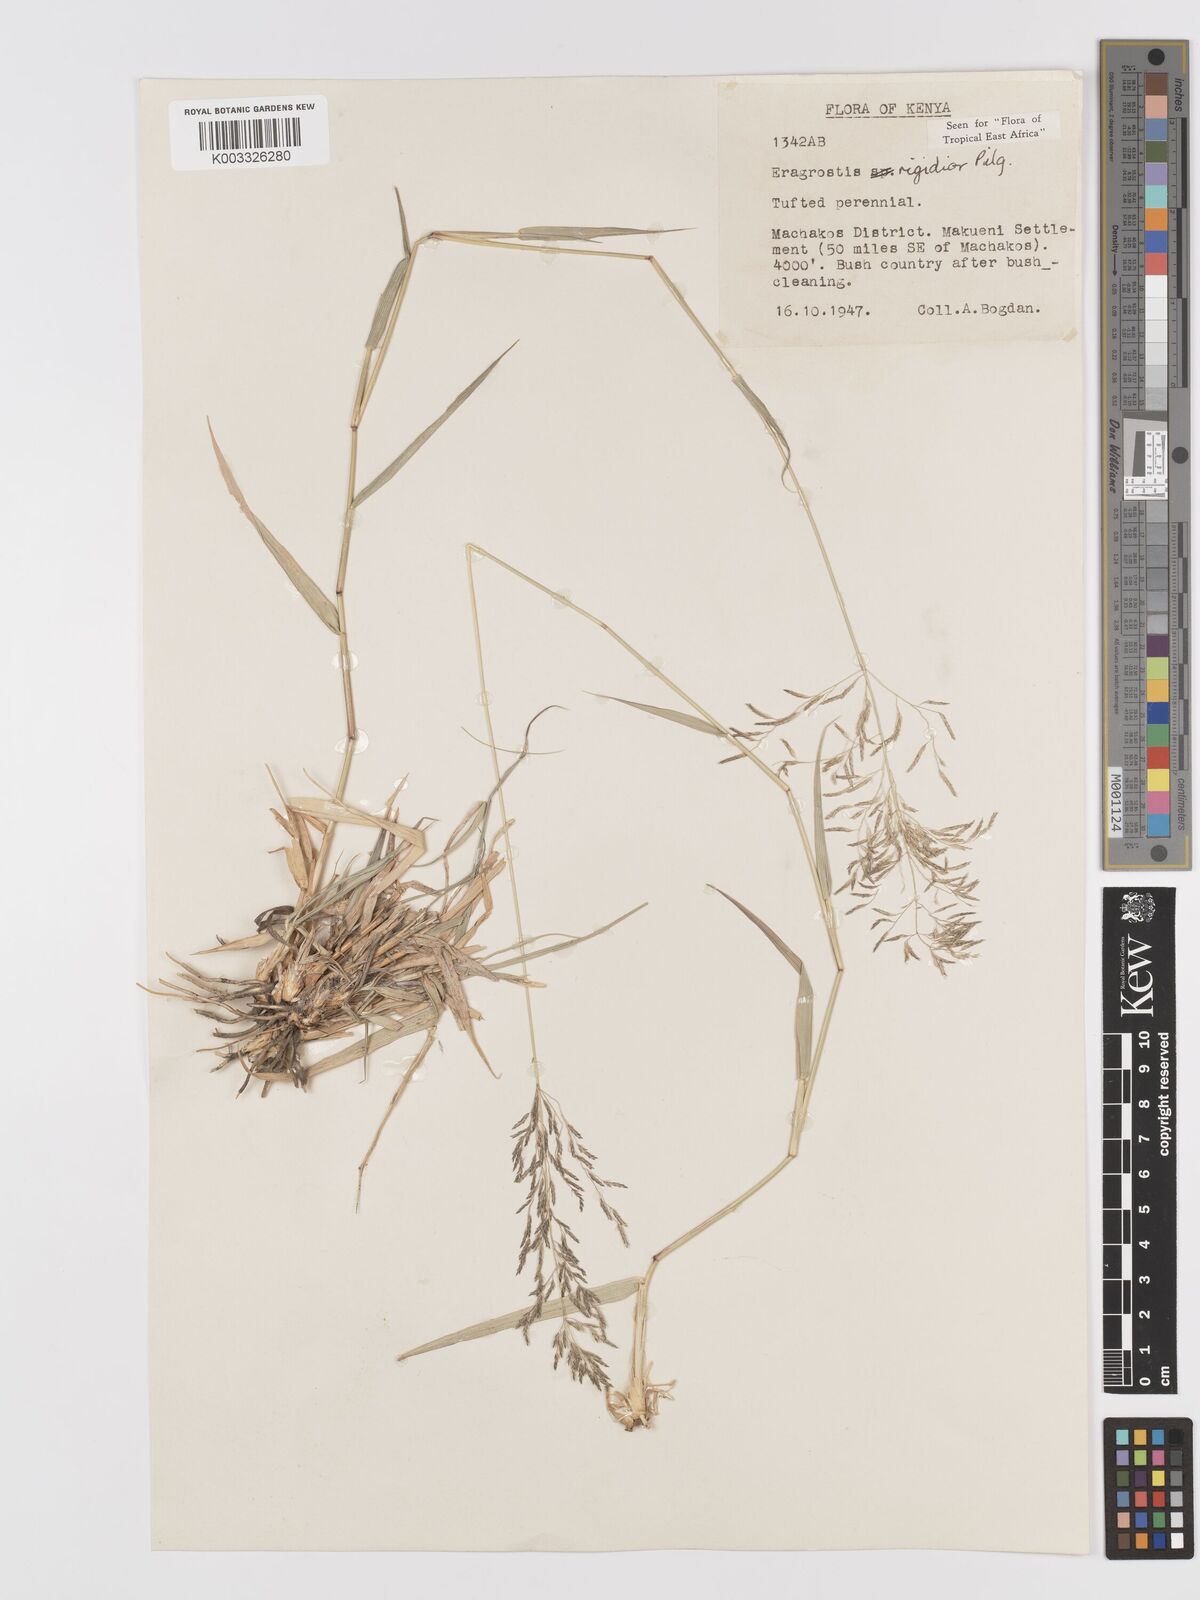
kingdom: Plantae
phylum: Tracheophyta
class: Liliopsida
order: Poales
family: Poaceae
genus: Eragrostis
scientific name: Eragrostis cylindriflora
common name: Cylinderflower lovegrass
